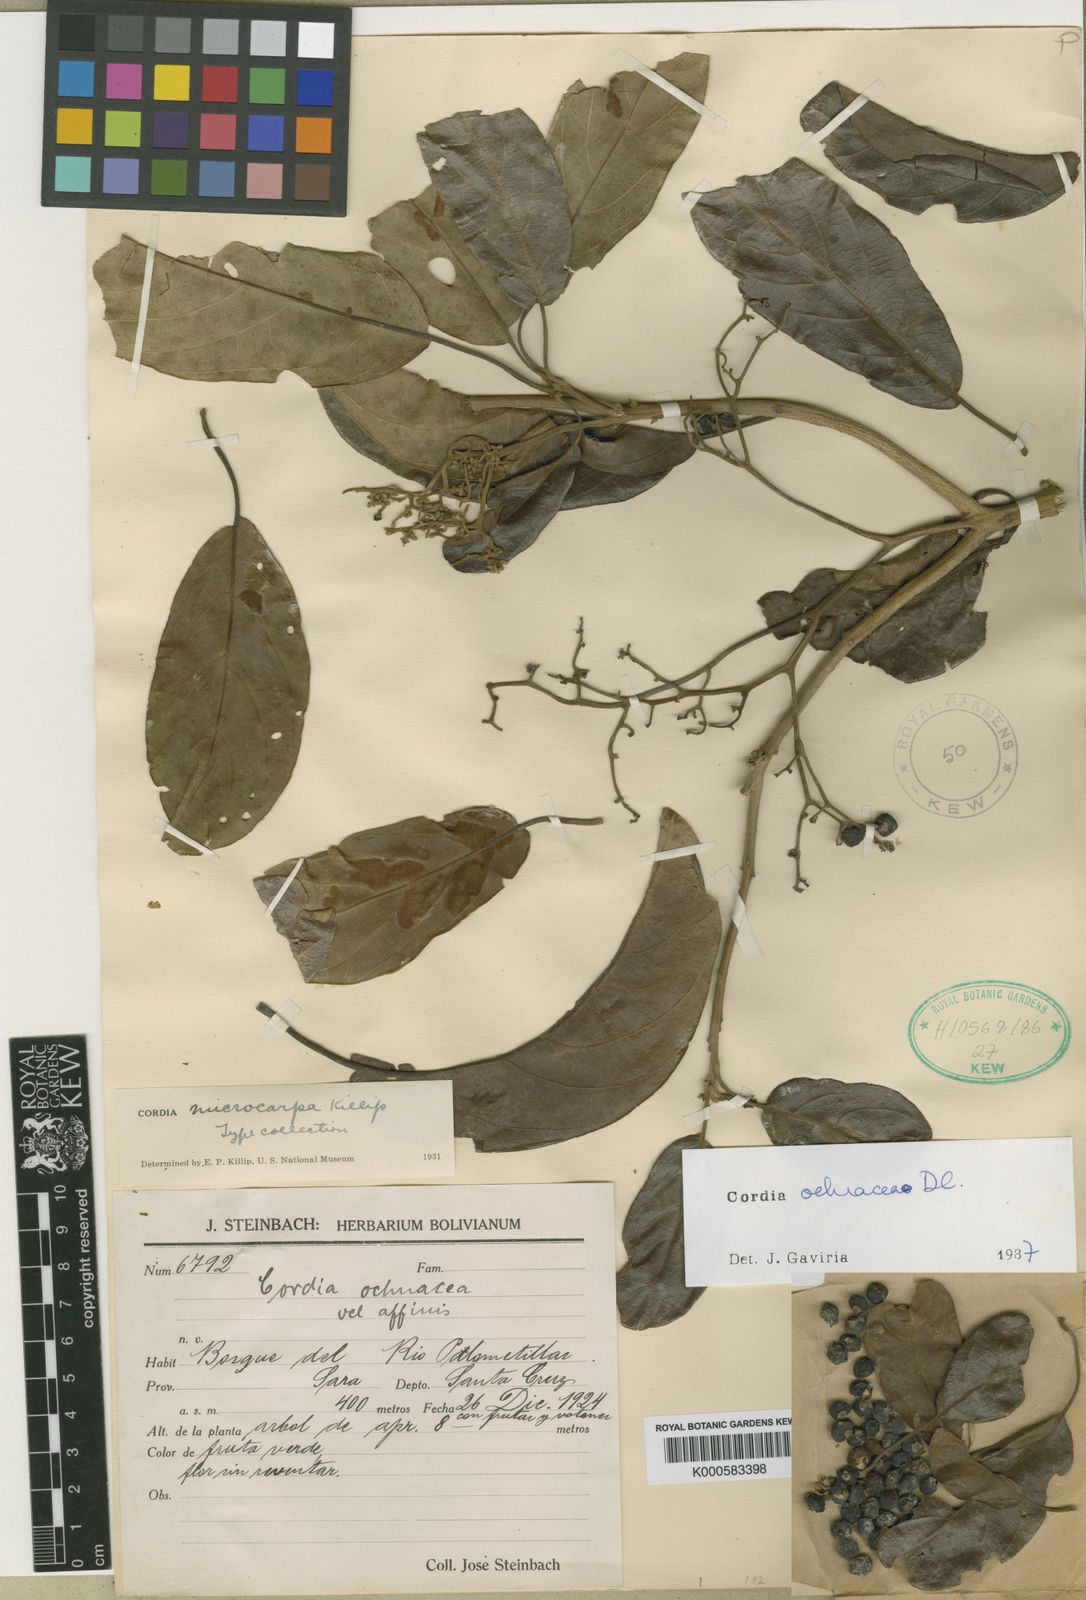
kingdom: Plantae
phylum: Tracheophyta
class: Magnoliopsida
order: Boraginales
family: Cordiaceae
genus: Cordia
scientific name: Cordia
